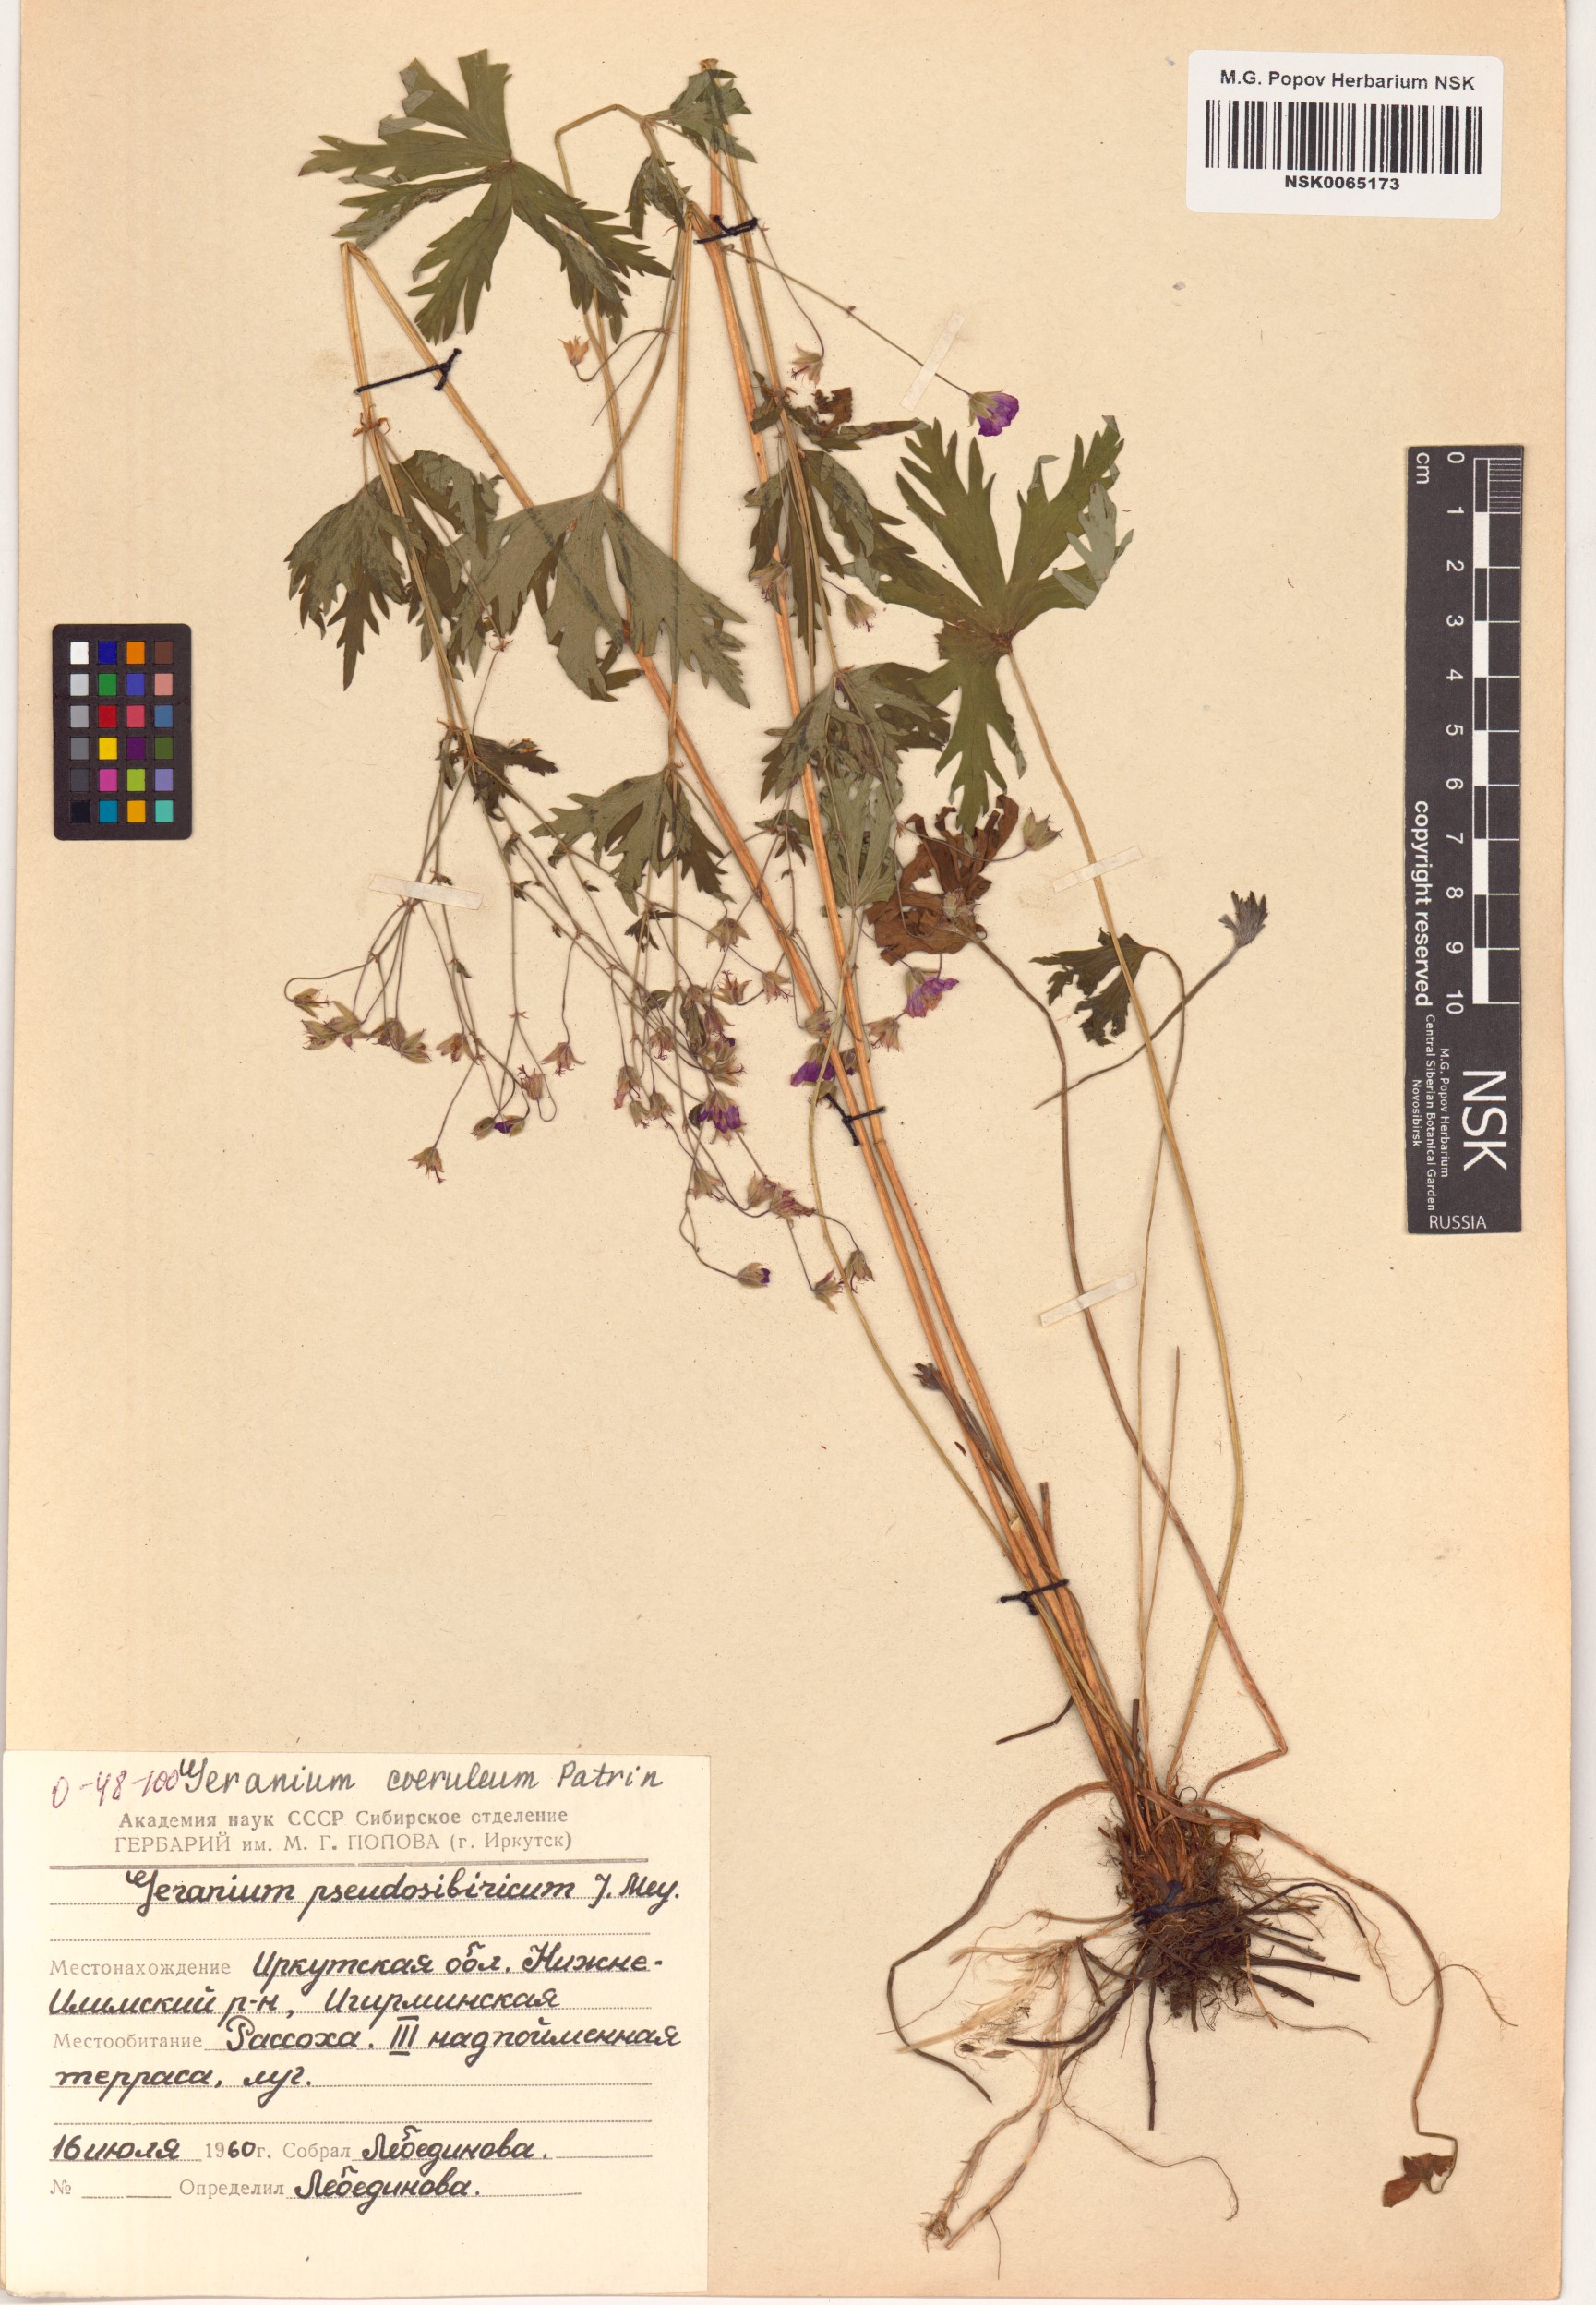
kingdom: Plantae
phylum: Tracheophyta
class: Magnoliopsida
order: Geraniales
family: Geraniaceae
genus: Geranium
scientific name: Geranium pseudosibiricum
